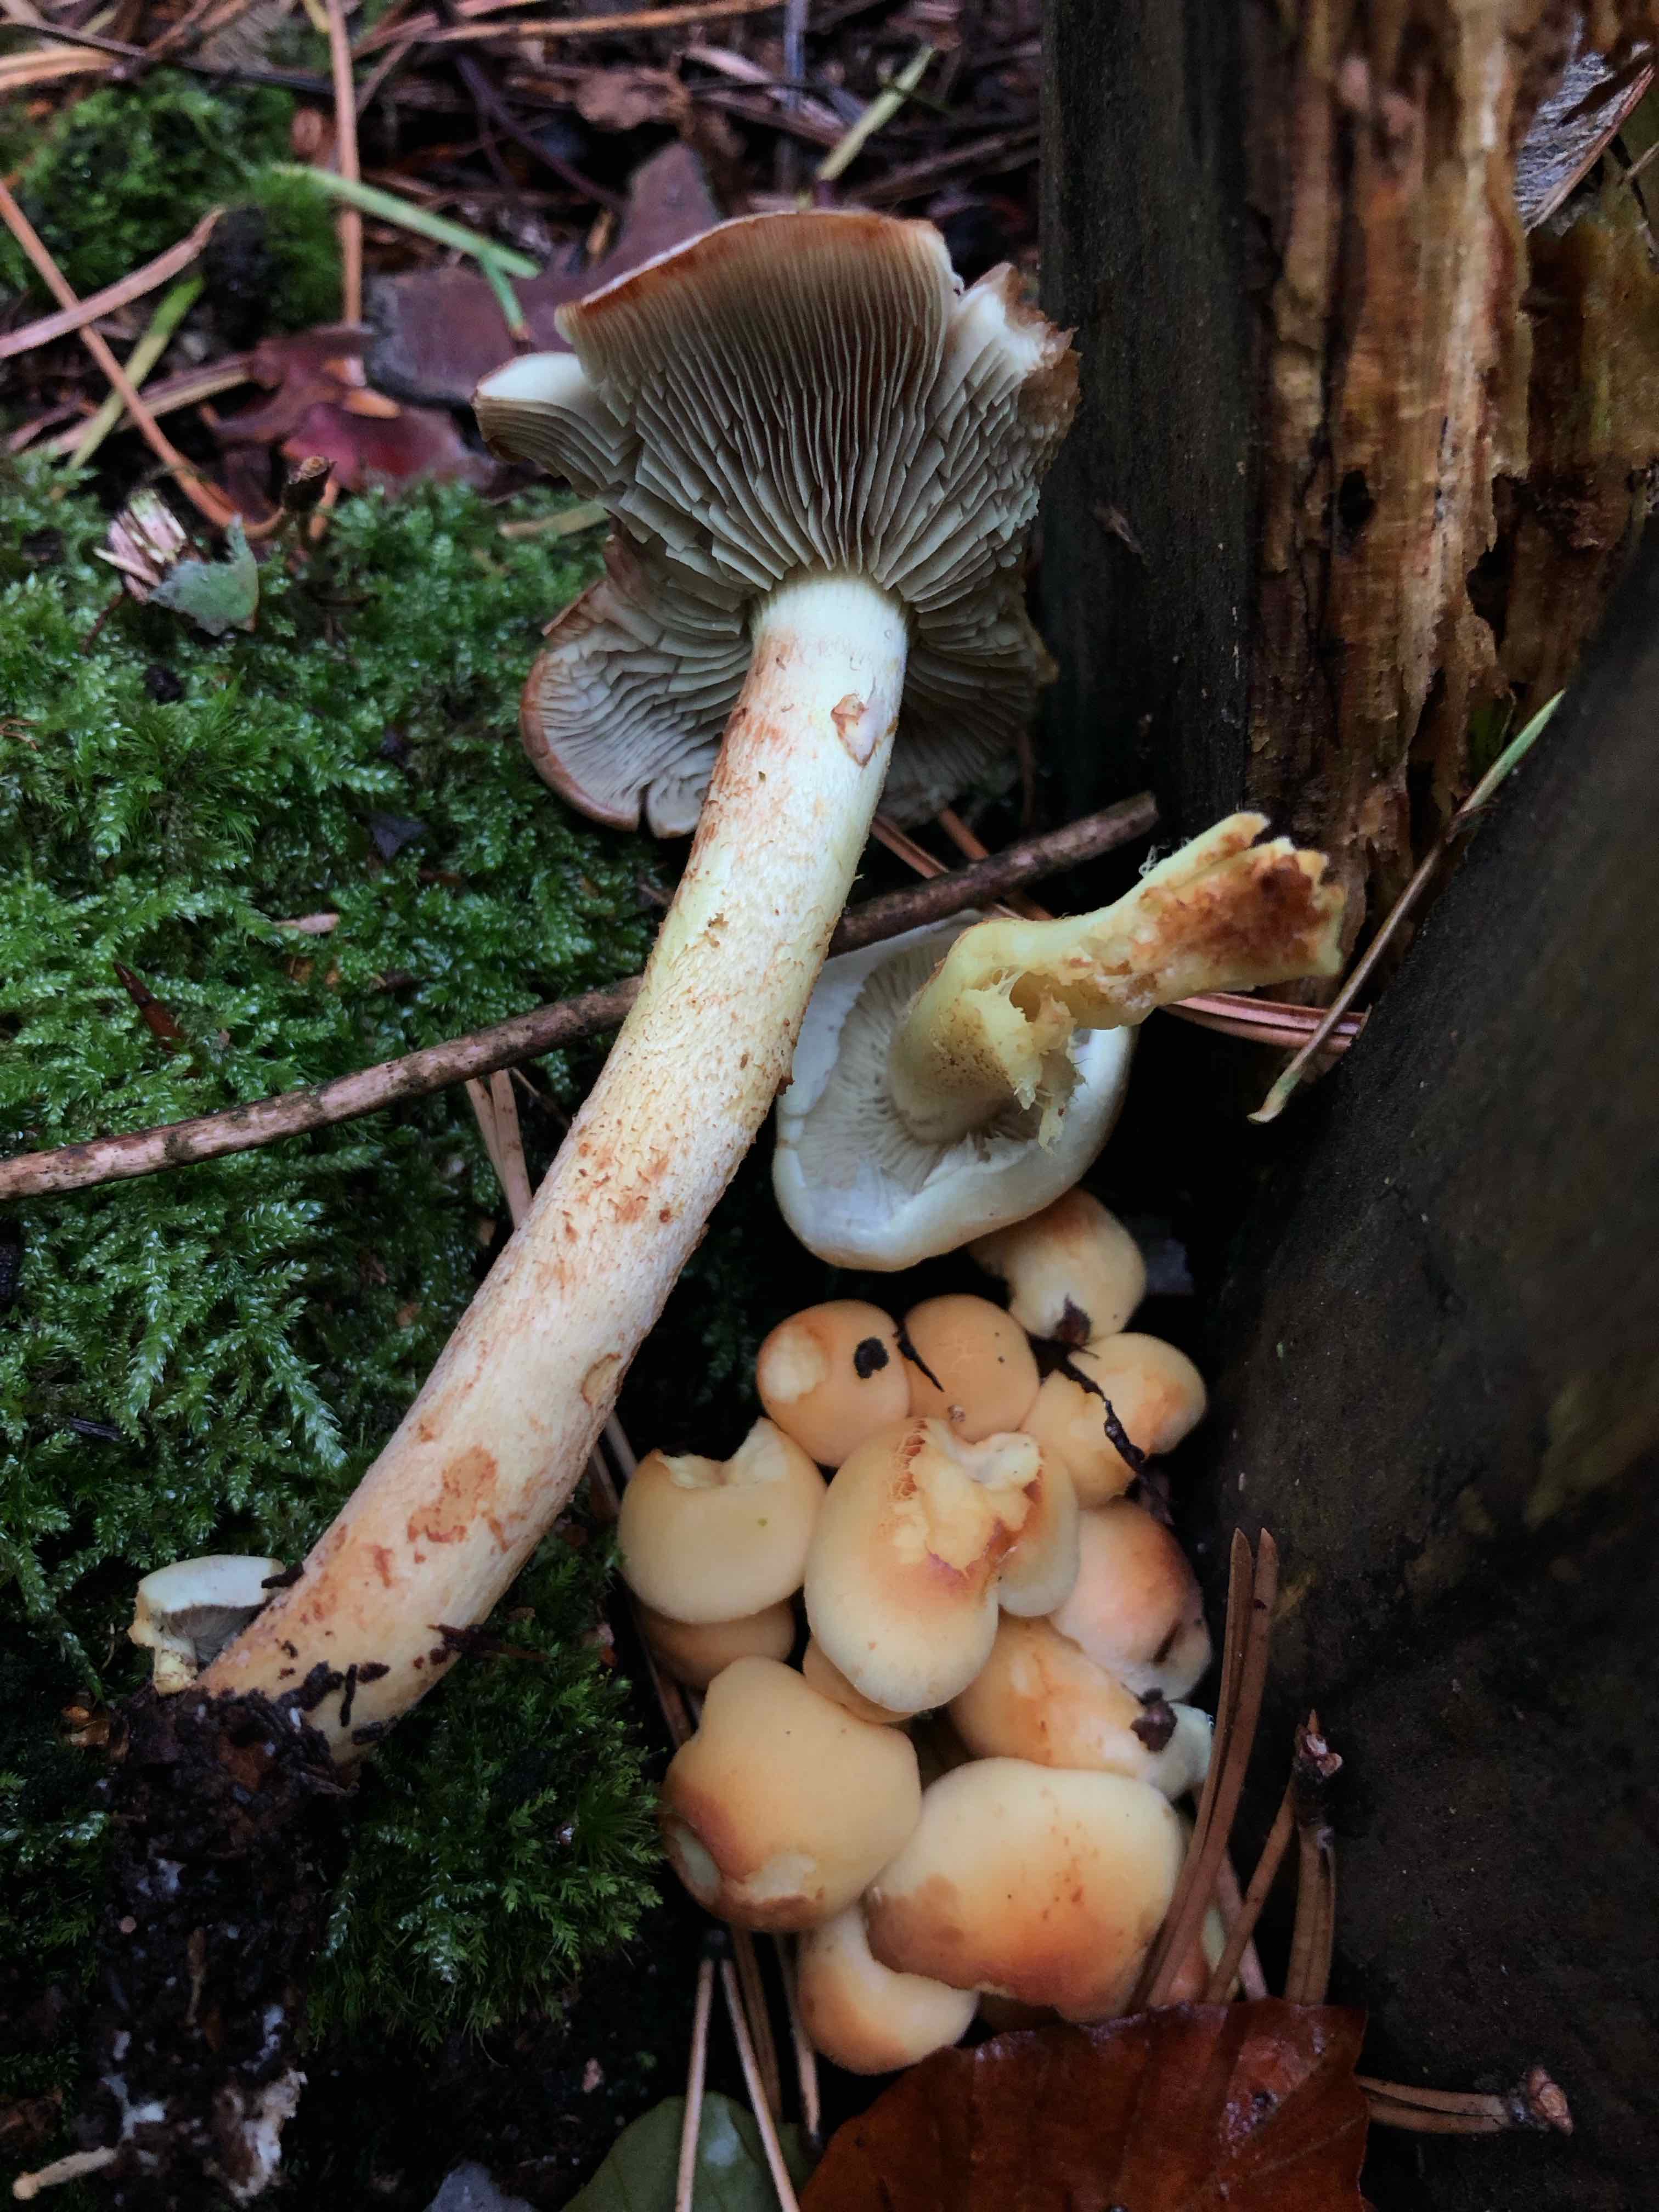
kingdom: Fungi
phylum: Basidiomycota
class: Agaricomycetes
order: Agaricales
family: Strophariaceae
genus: Hypholoma
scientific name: Hypholoma fasciculare
